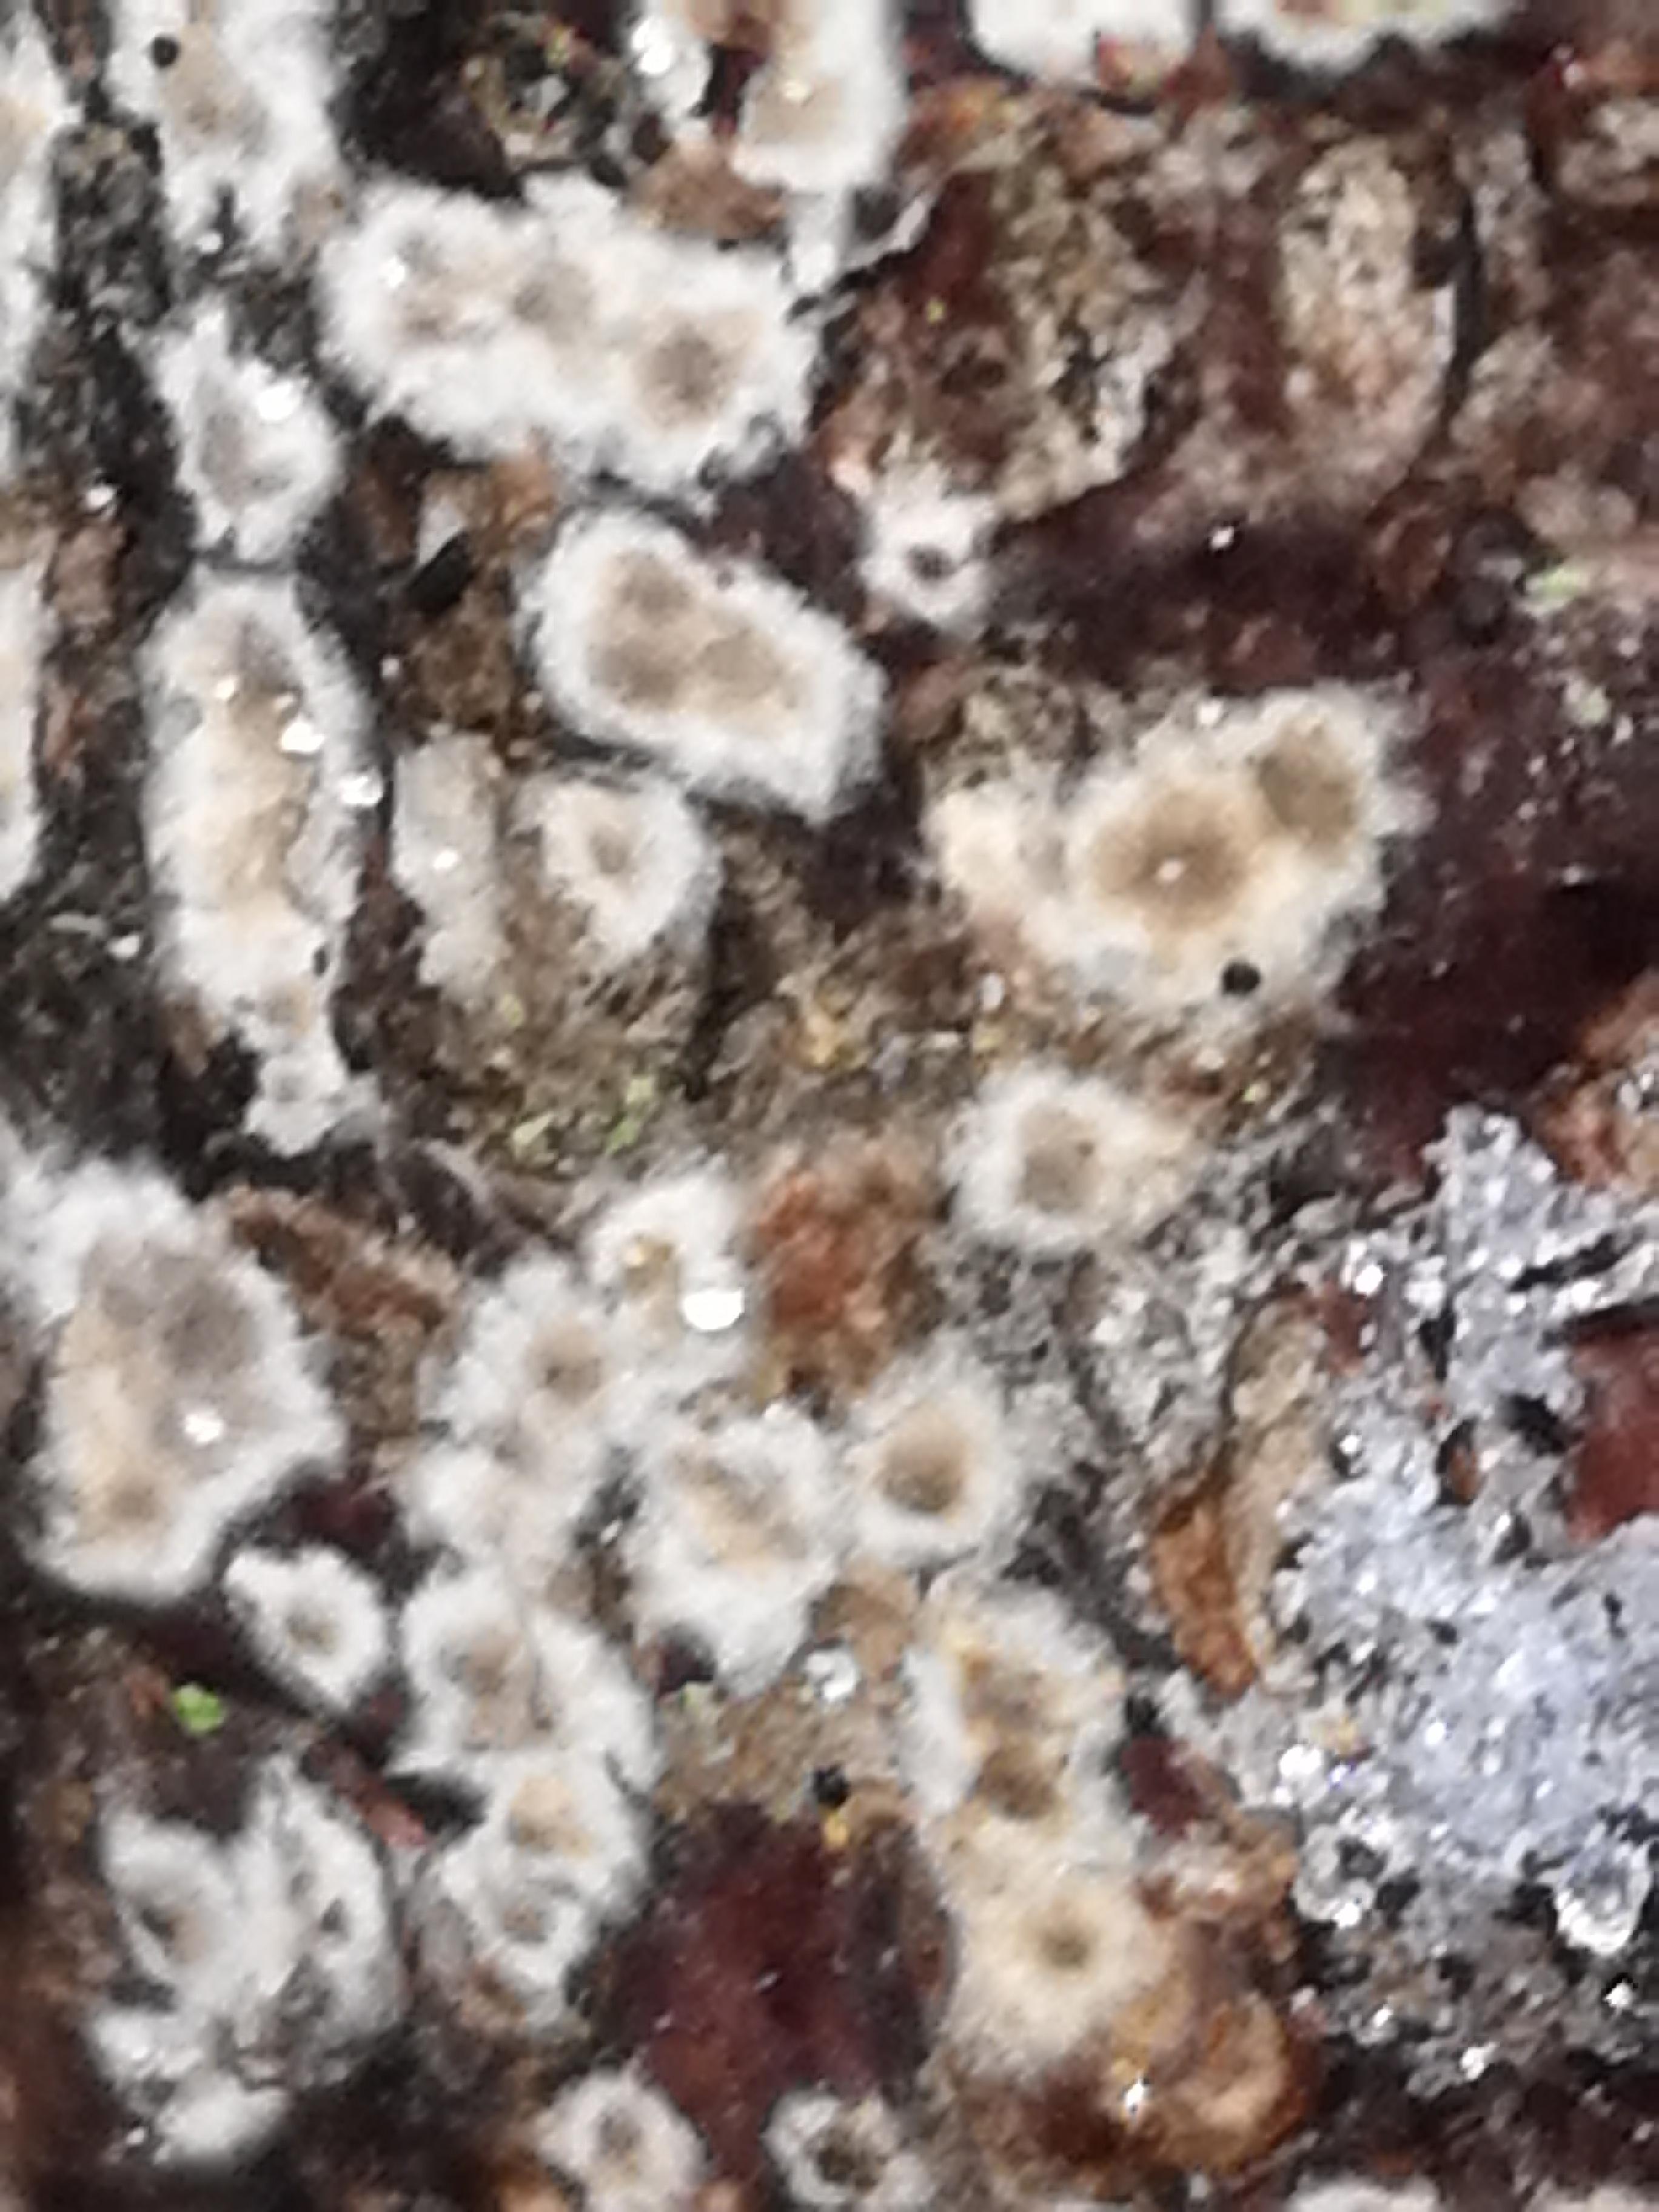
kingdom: Fungi
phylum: Basidiomycota
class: Agaricomycetes
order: Corticiales
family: Corticiaceae
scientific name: Corticiaceae
